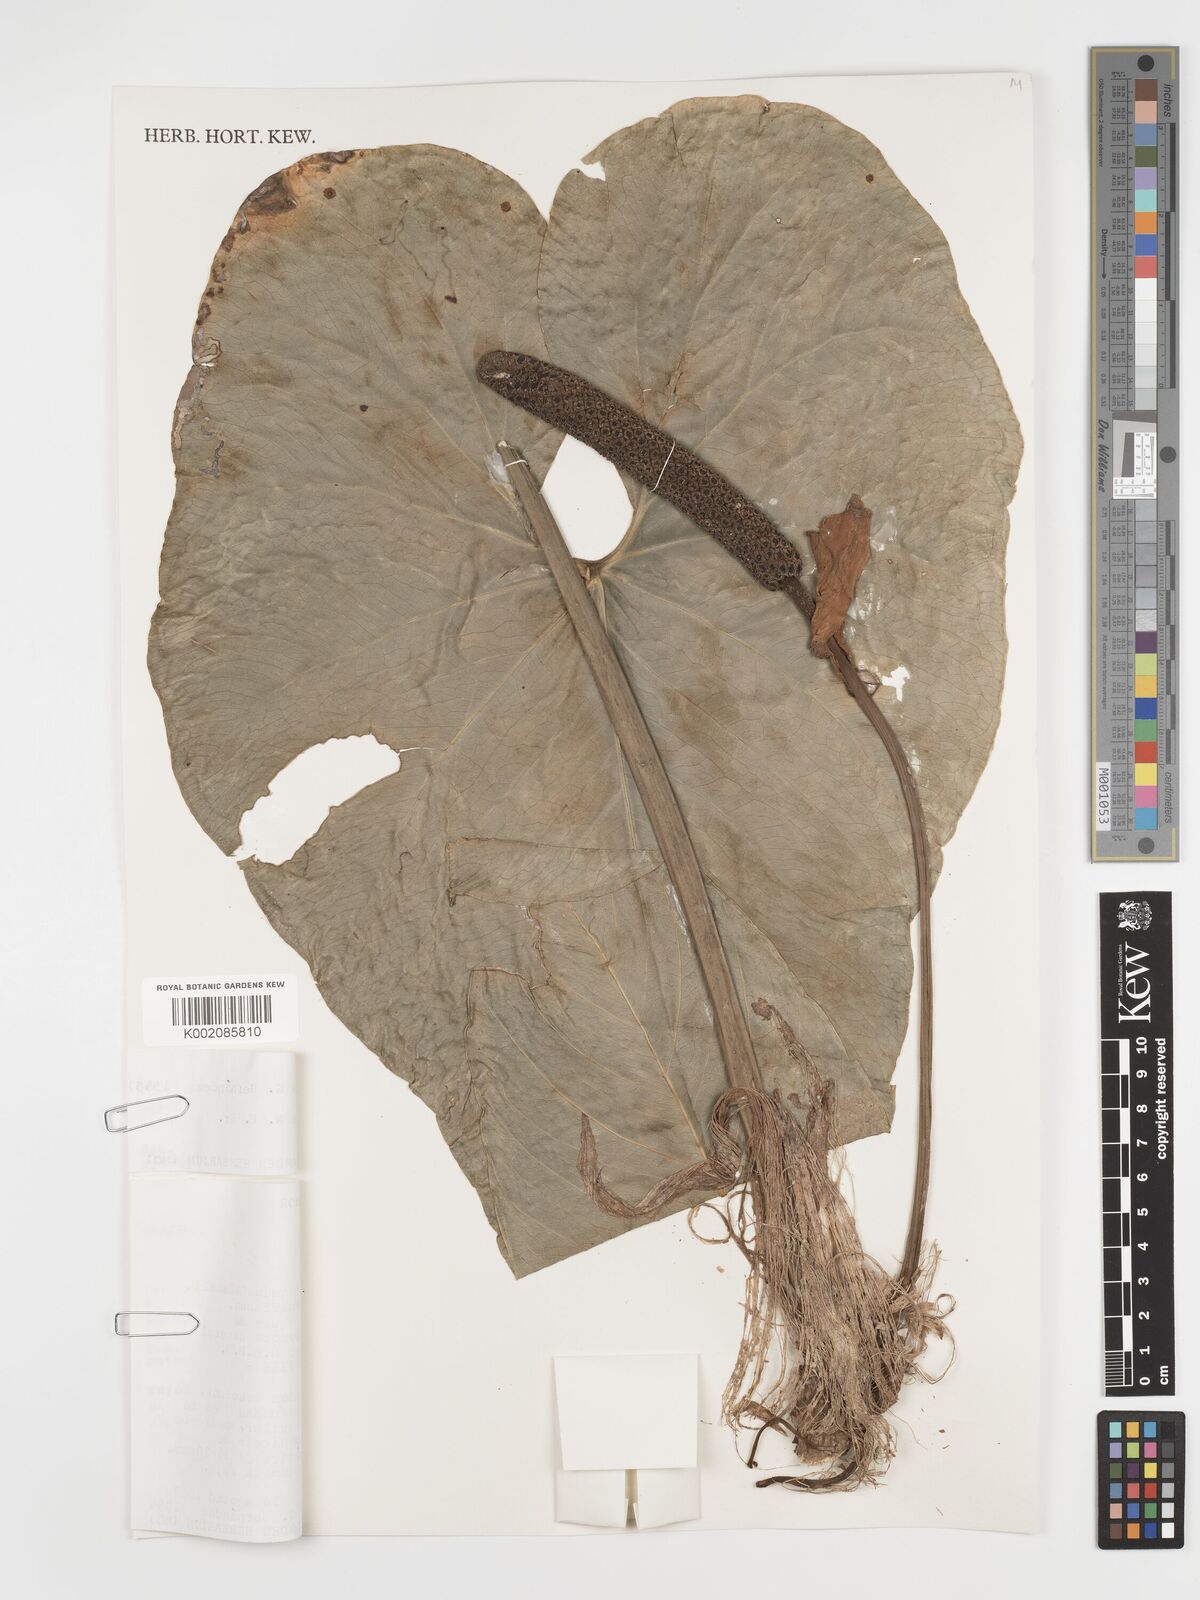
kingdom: Plantae
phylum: Tracheophyta
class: Liliopsida
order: Alismatales
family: Araceae
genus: Anthurium
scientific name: Anthurium coripatense
